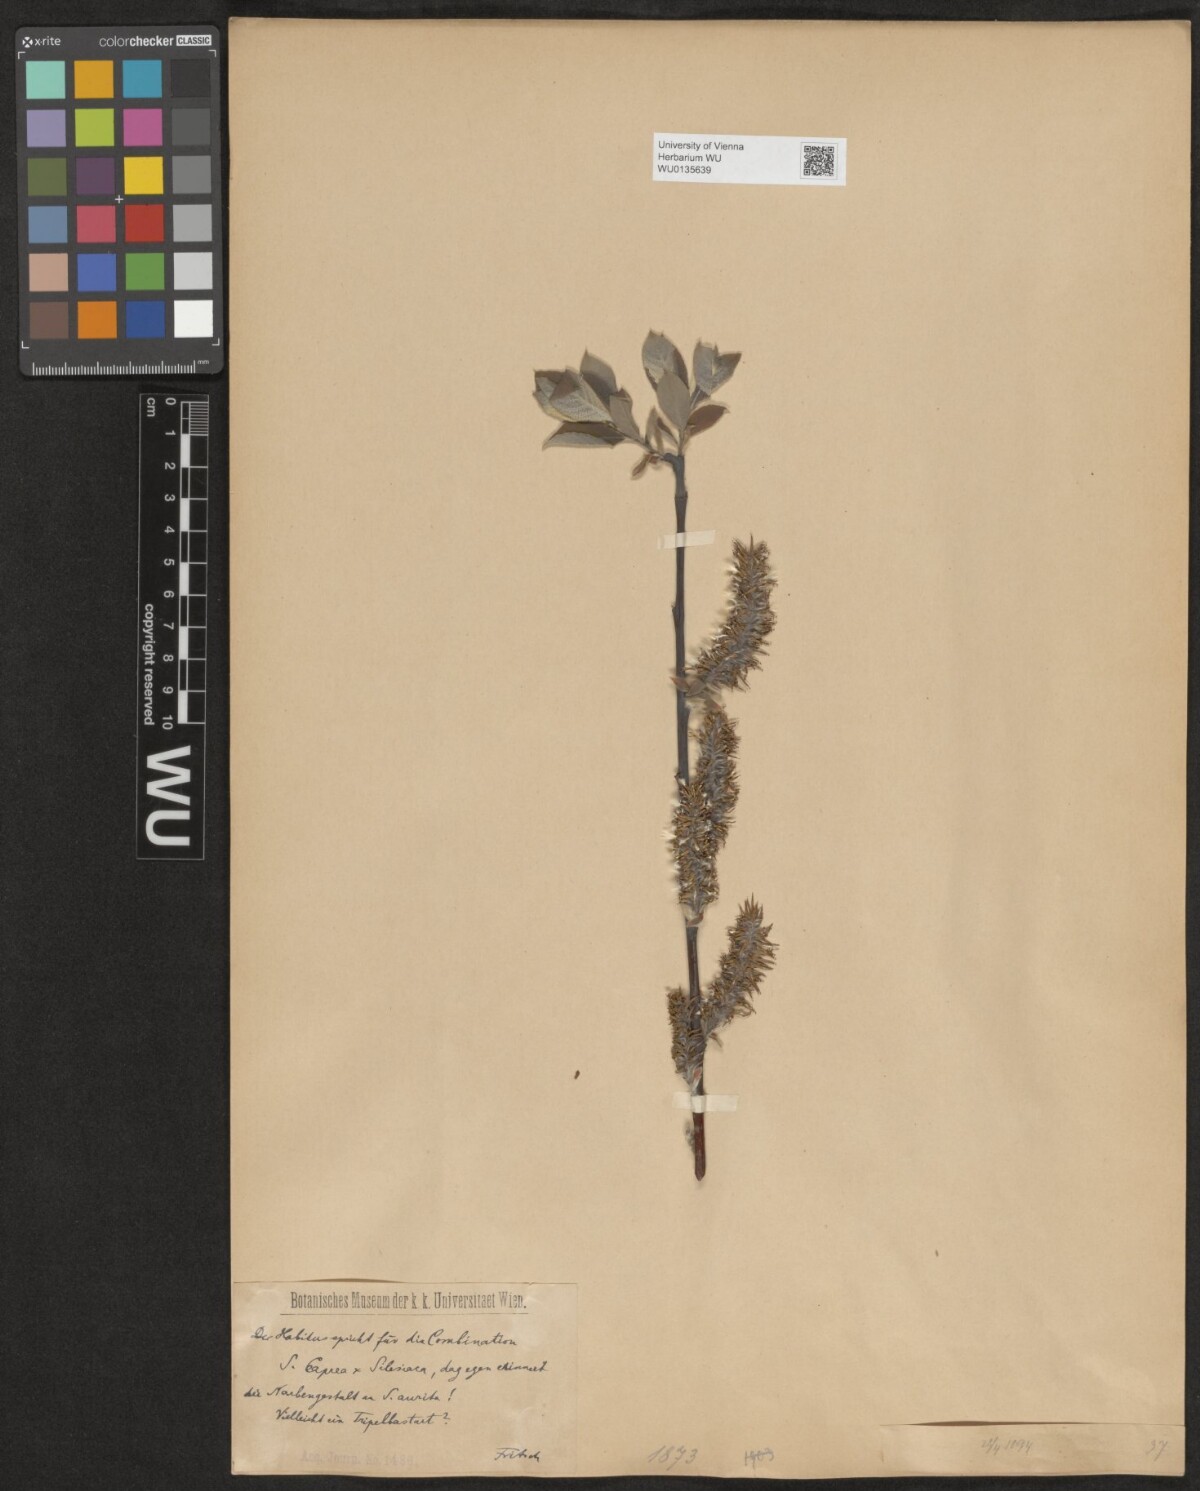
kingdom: Plantae
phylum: Tracheophyta
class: Magnoliopsida
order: Malpighiales
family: Salicaceae
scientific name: Salicaceae
